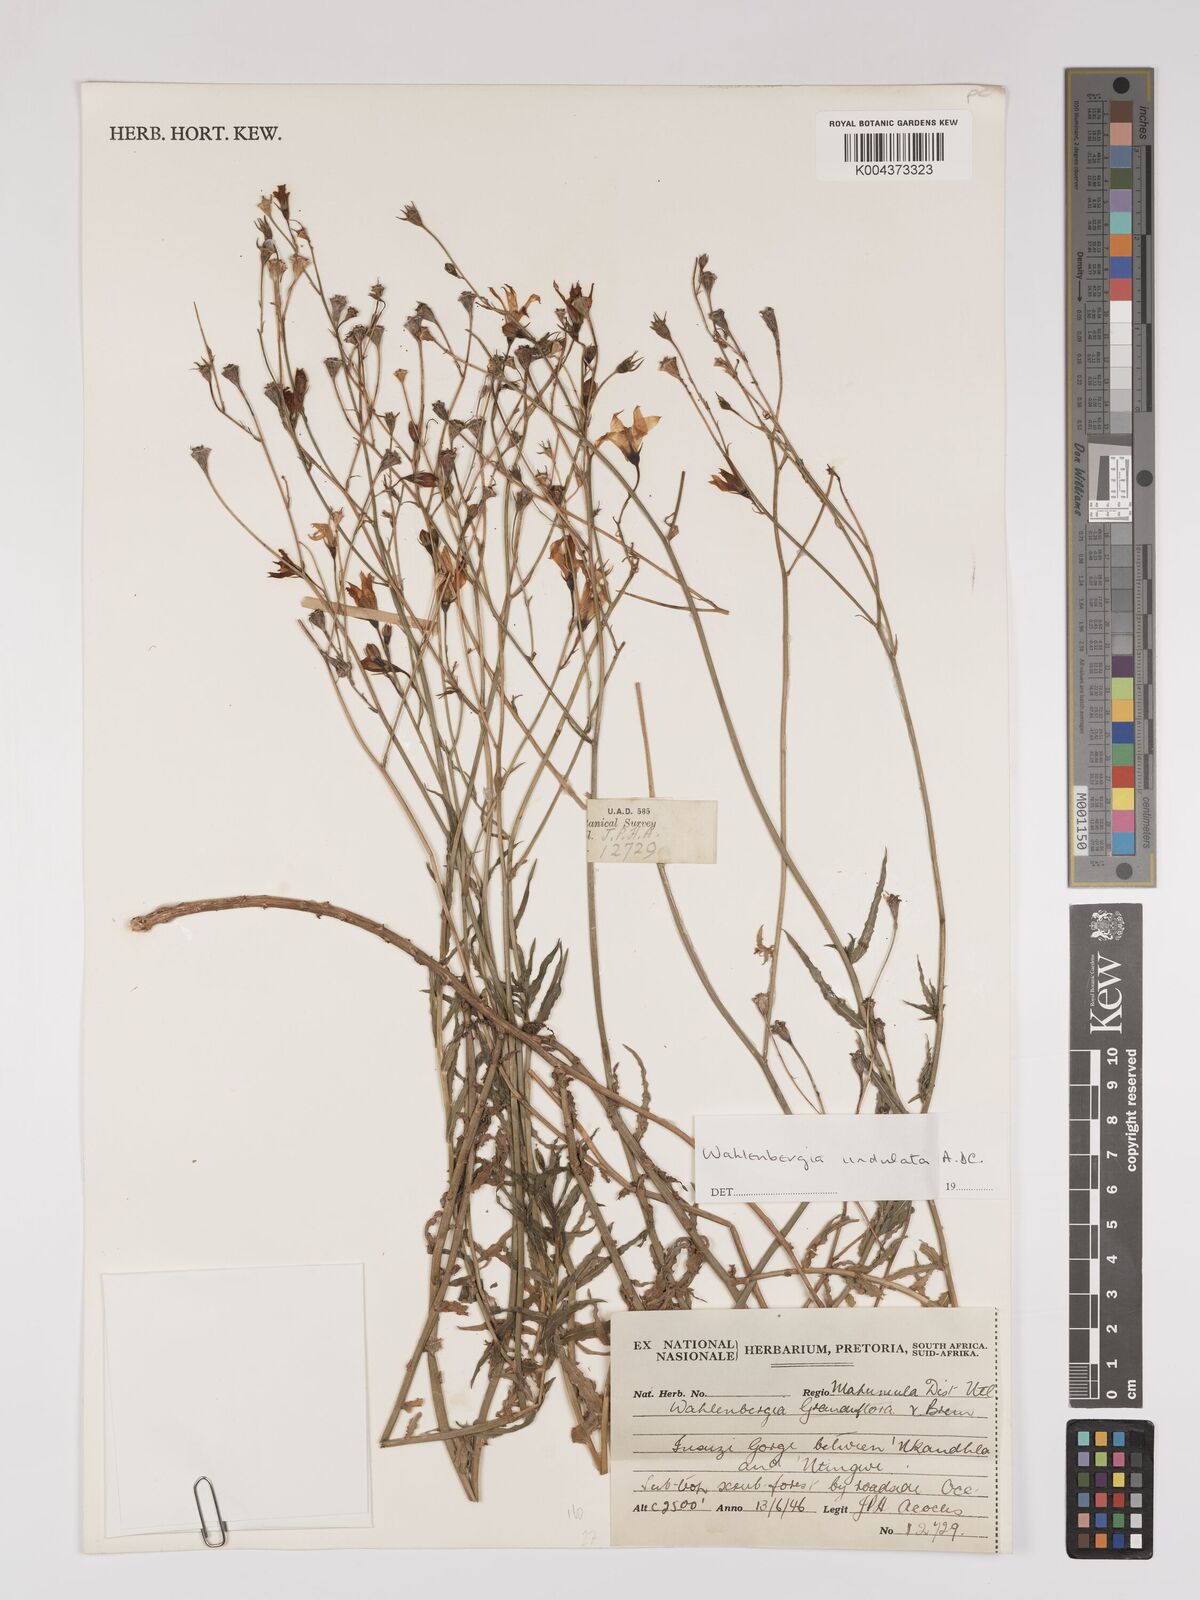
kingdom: Plantae
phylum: Tracheophyta
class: Magnoliopsida
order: Asterales
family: Campanulaceae
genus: Wahlenbergia
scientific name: Wahlenbergia undulata
